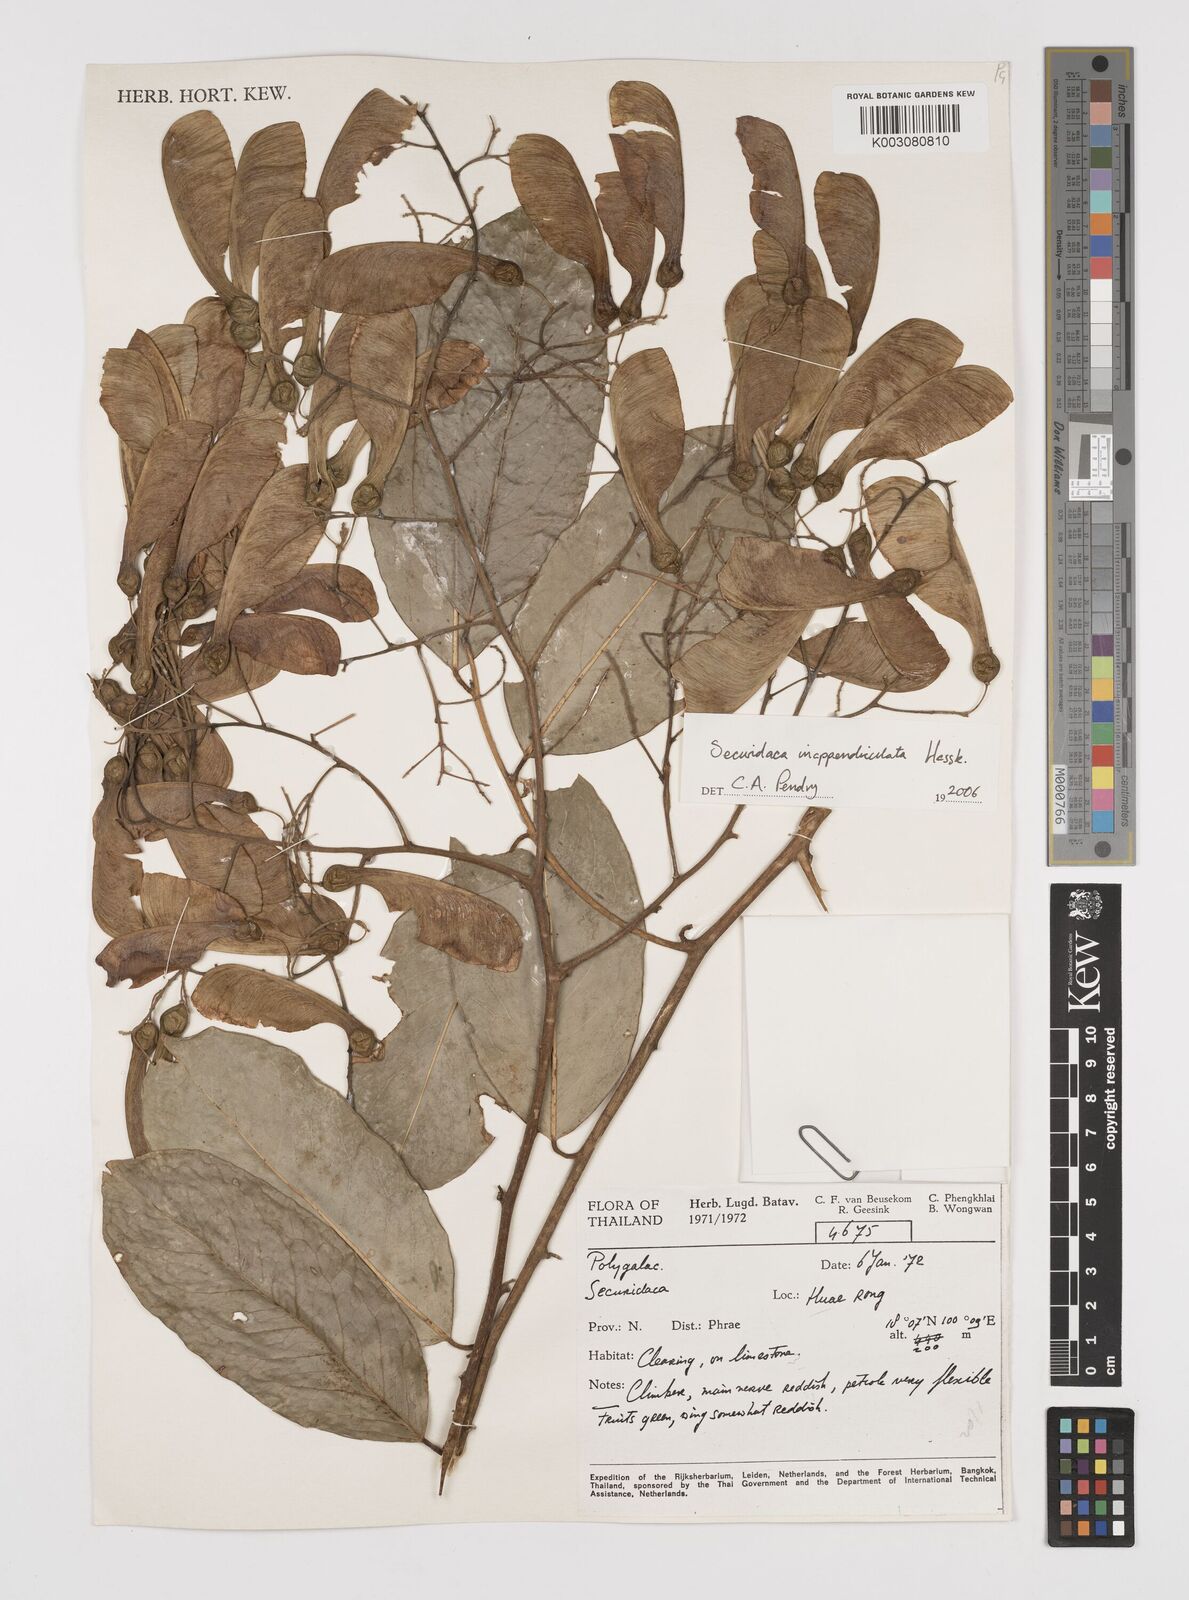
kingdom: Plantae
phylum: Tracheophyta
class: Magnoliopsida
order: Fabales
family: Polygalaceae
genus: Securidaca
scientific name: Securidaca inappendiculata
